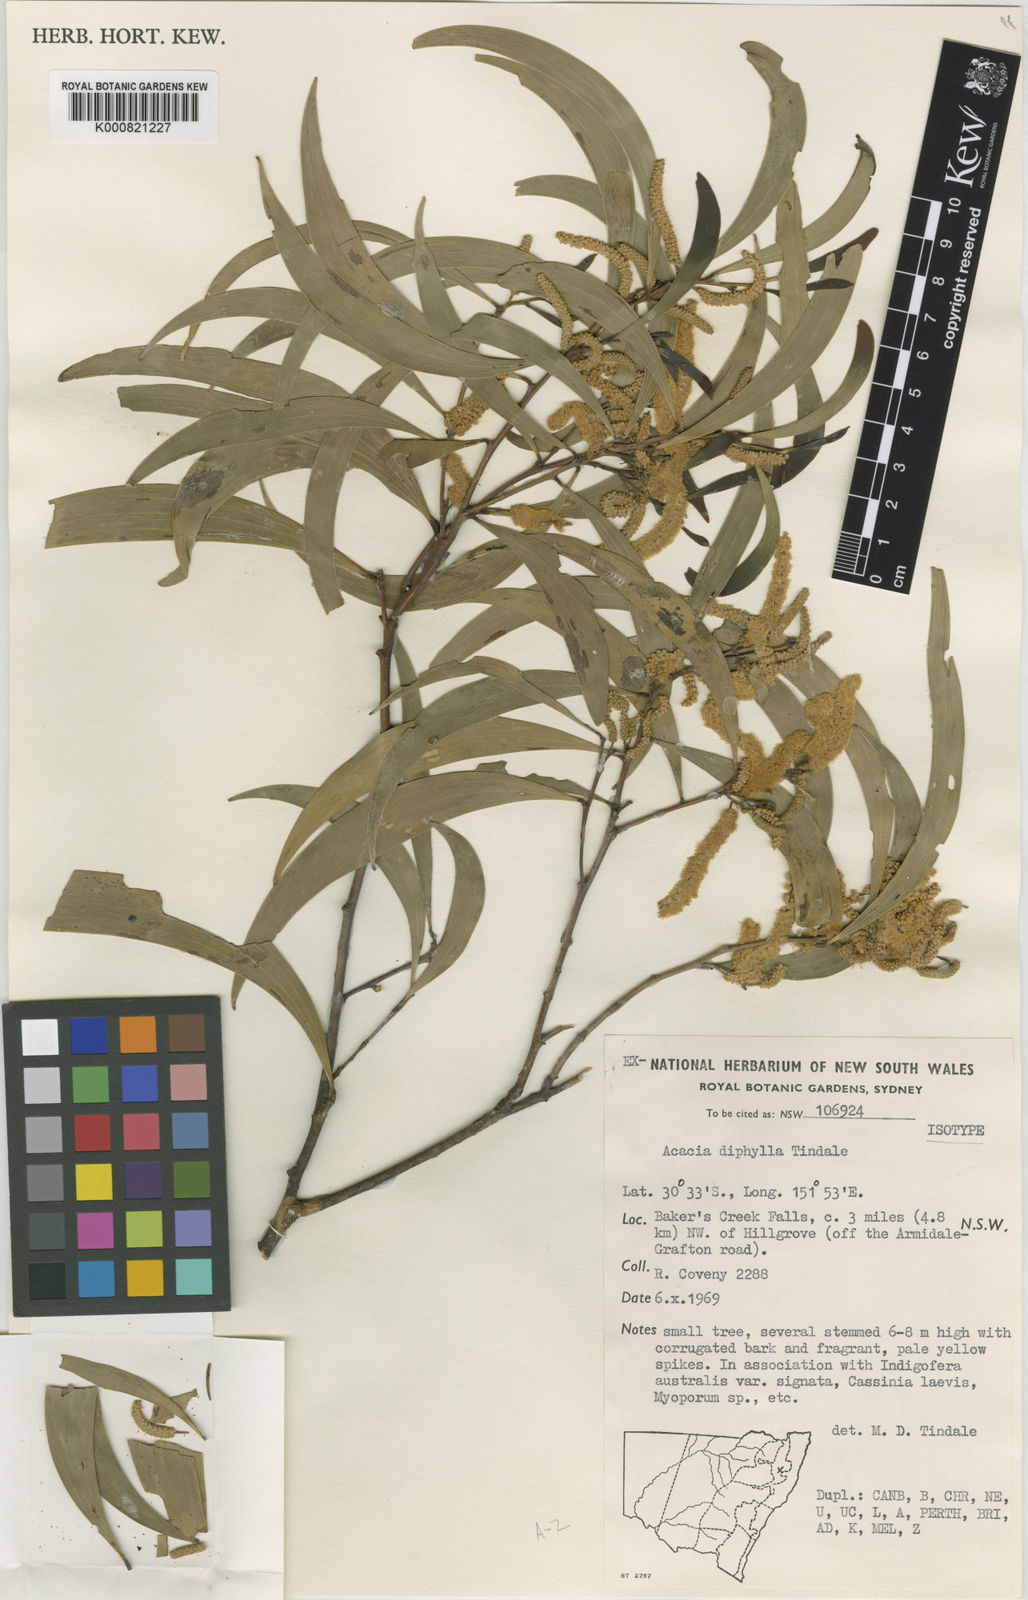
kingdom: Plantae
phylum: Tracheophyta
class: Magnoliopsida
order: Fabales
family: Fabaceae
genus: Acacia
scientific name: Acacia blakei
